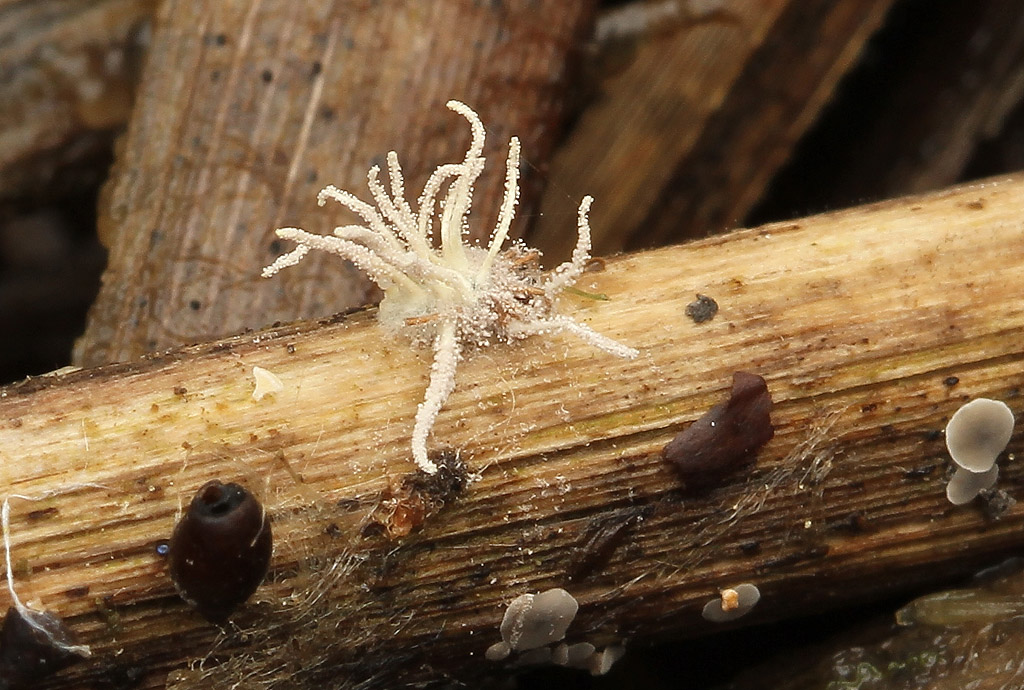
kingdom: Fungi
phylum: Ascomycota
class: Sordariomycetes
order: Hypocreales
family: Cordycipitaceae
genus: Gibellula
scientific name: Gibellula pulchra
